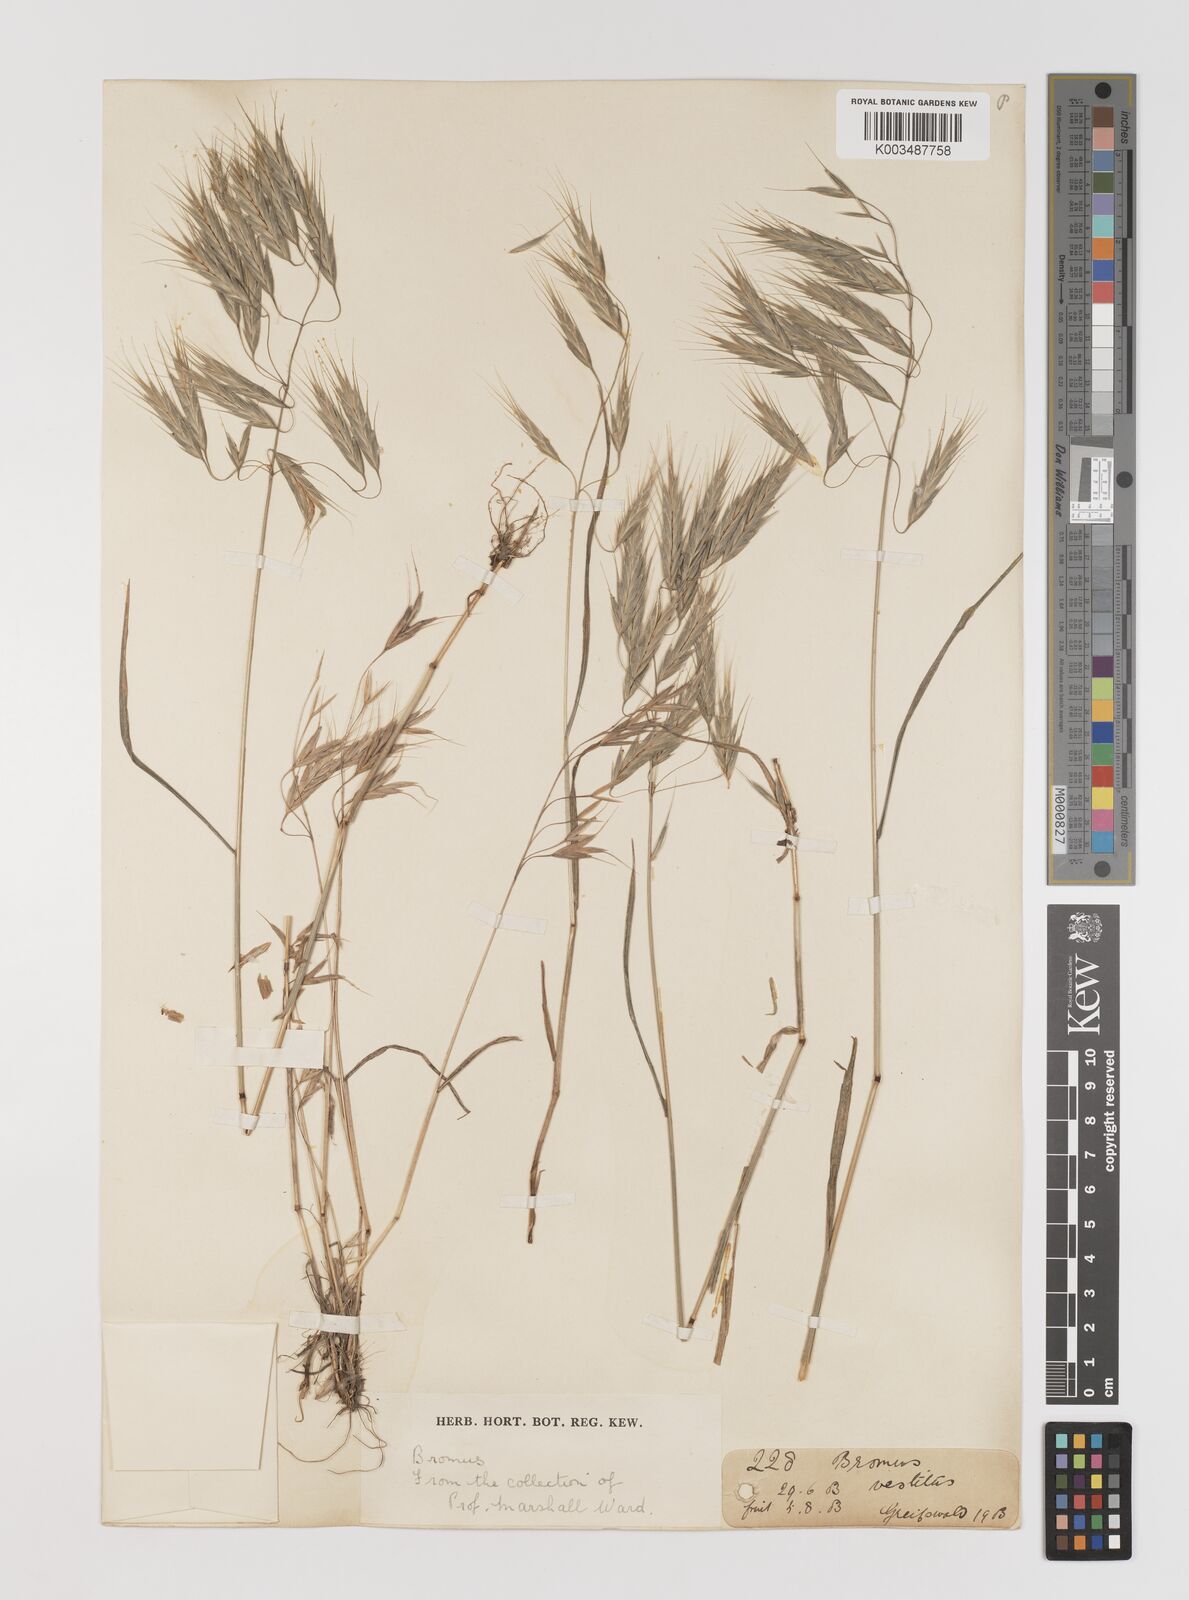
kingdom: Plantae
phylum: Tracheophyta
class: Liliopsida
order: Poales
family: Poaceae
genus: Bromus
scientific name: Bromus pectinatus
